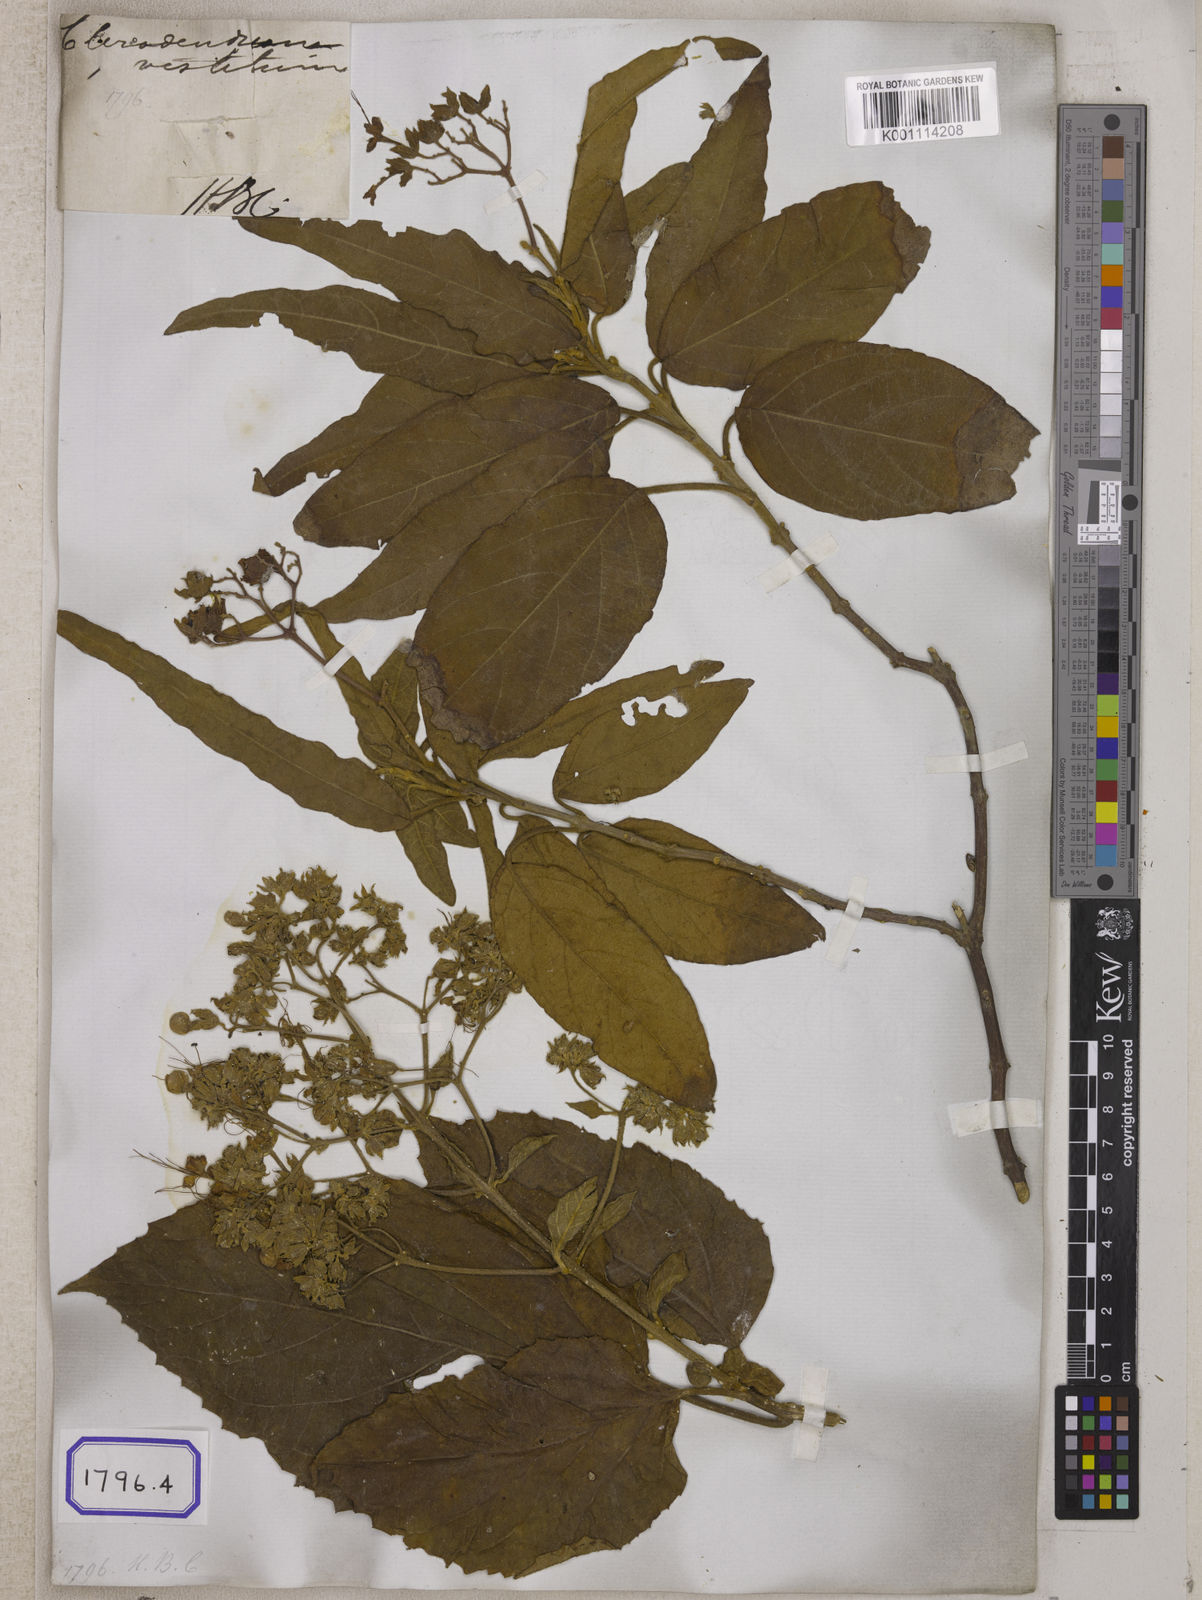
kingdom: Plantae
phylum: Tracheophyta
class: Magnoliopsida
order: Lamiales
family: Lamiaceae
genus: Clerodendrum
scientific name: Clerodendrum infortunatum
